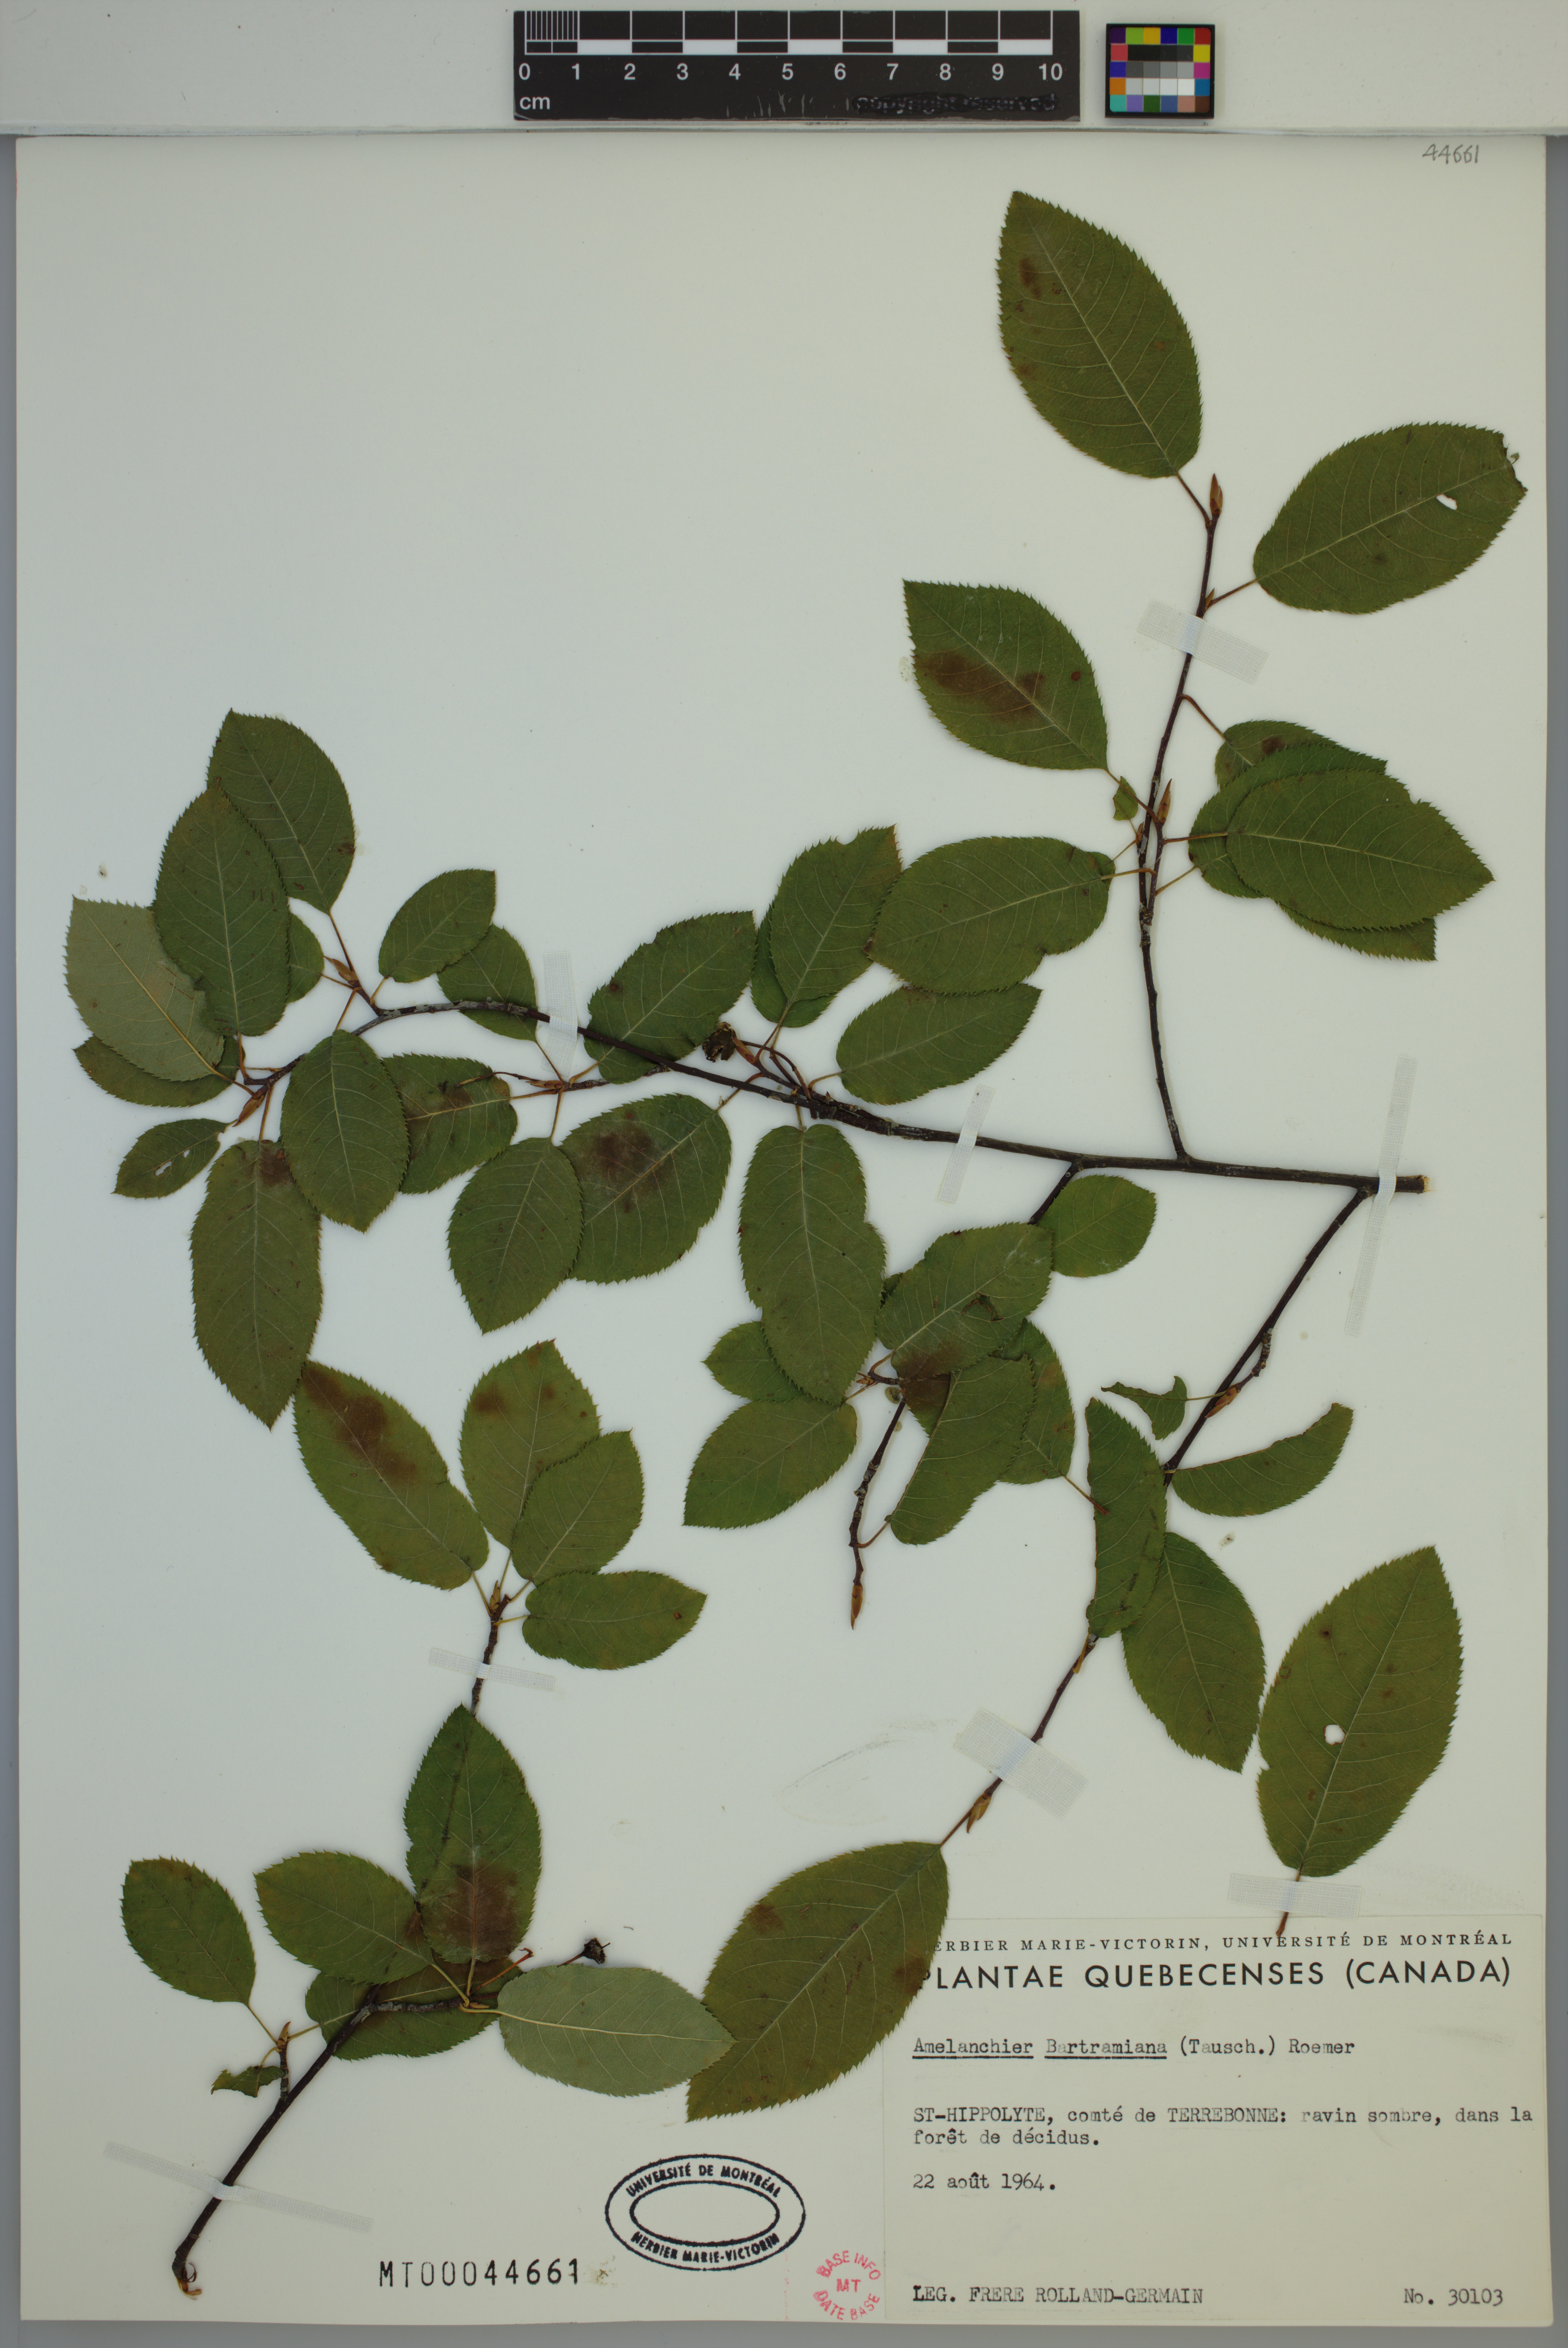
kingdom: Plantae
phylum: Tracheophyta
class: Magnoliopsida
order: Rosales
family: Rosaceae
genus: Amelanchier
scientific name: Amelanchier bartramiana
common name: Mountain serviceberry
